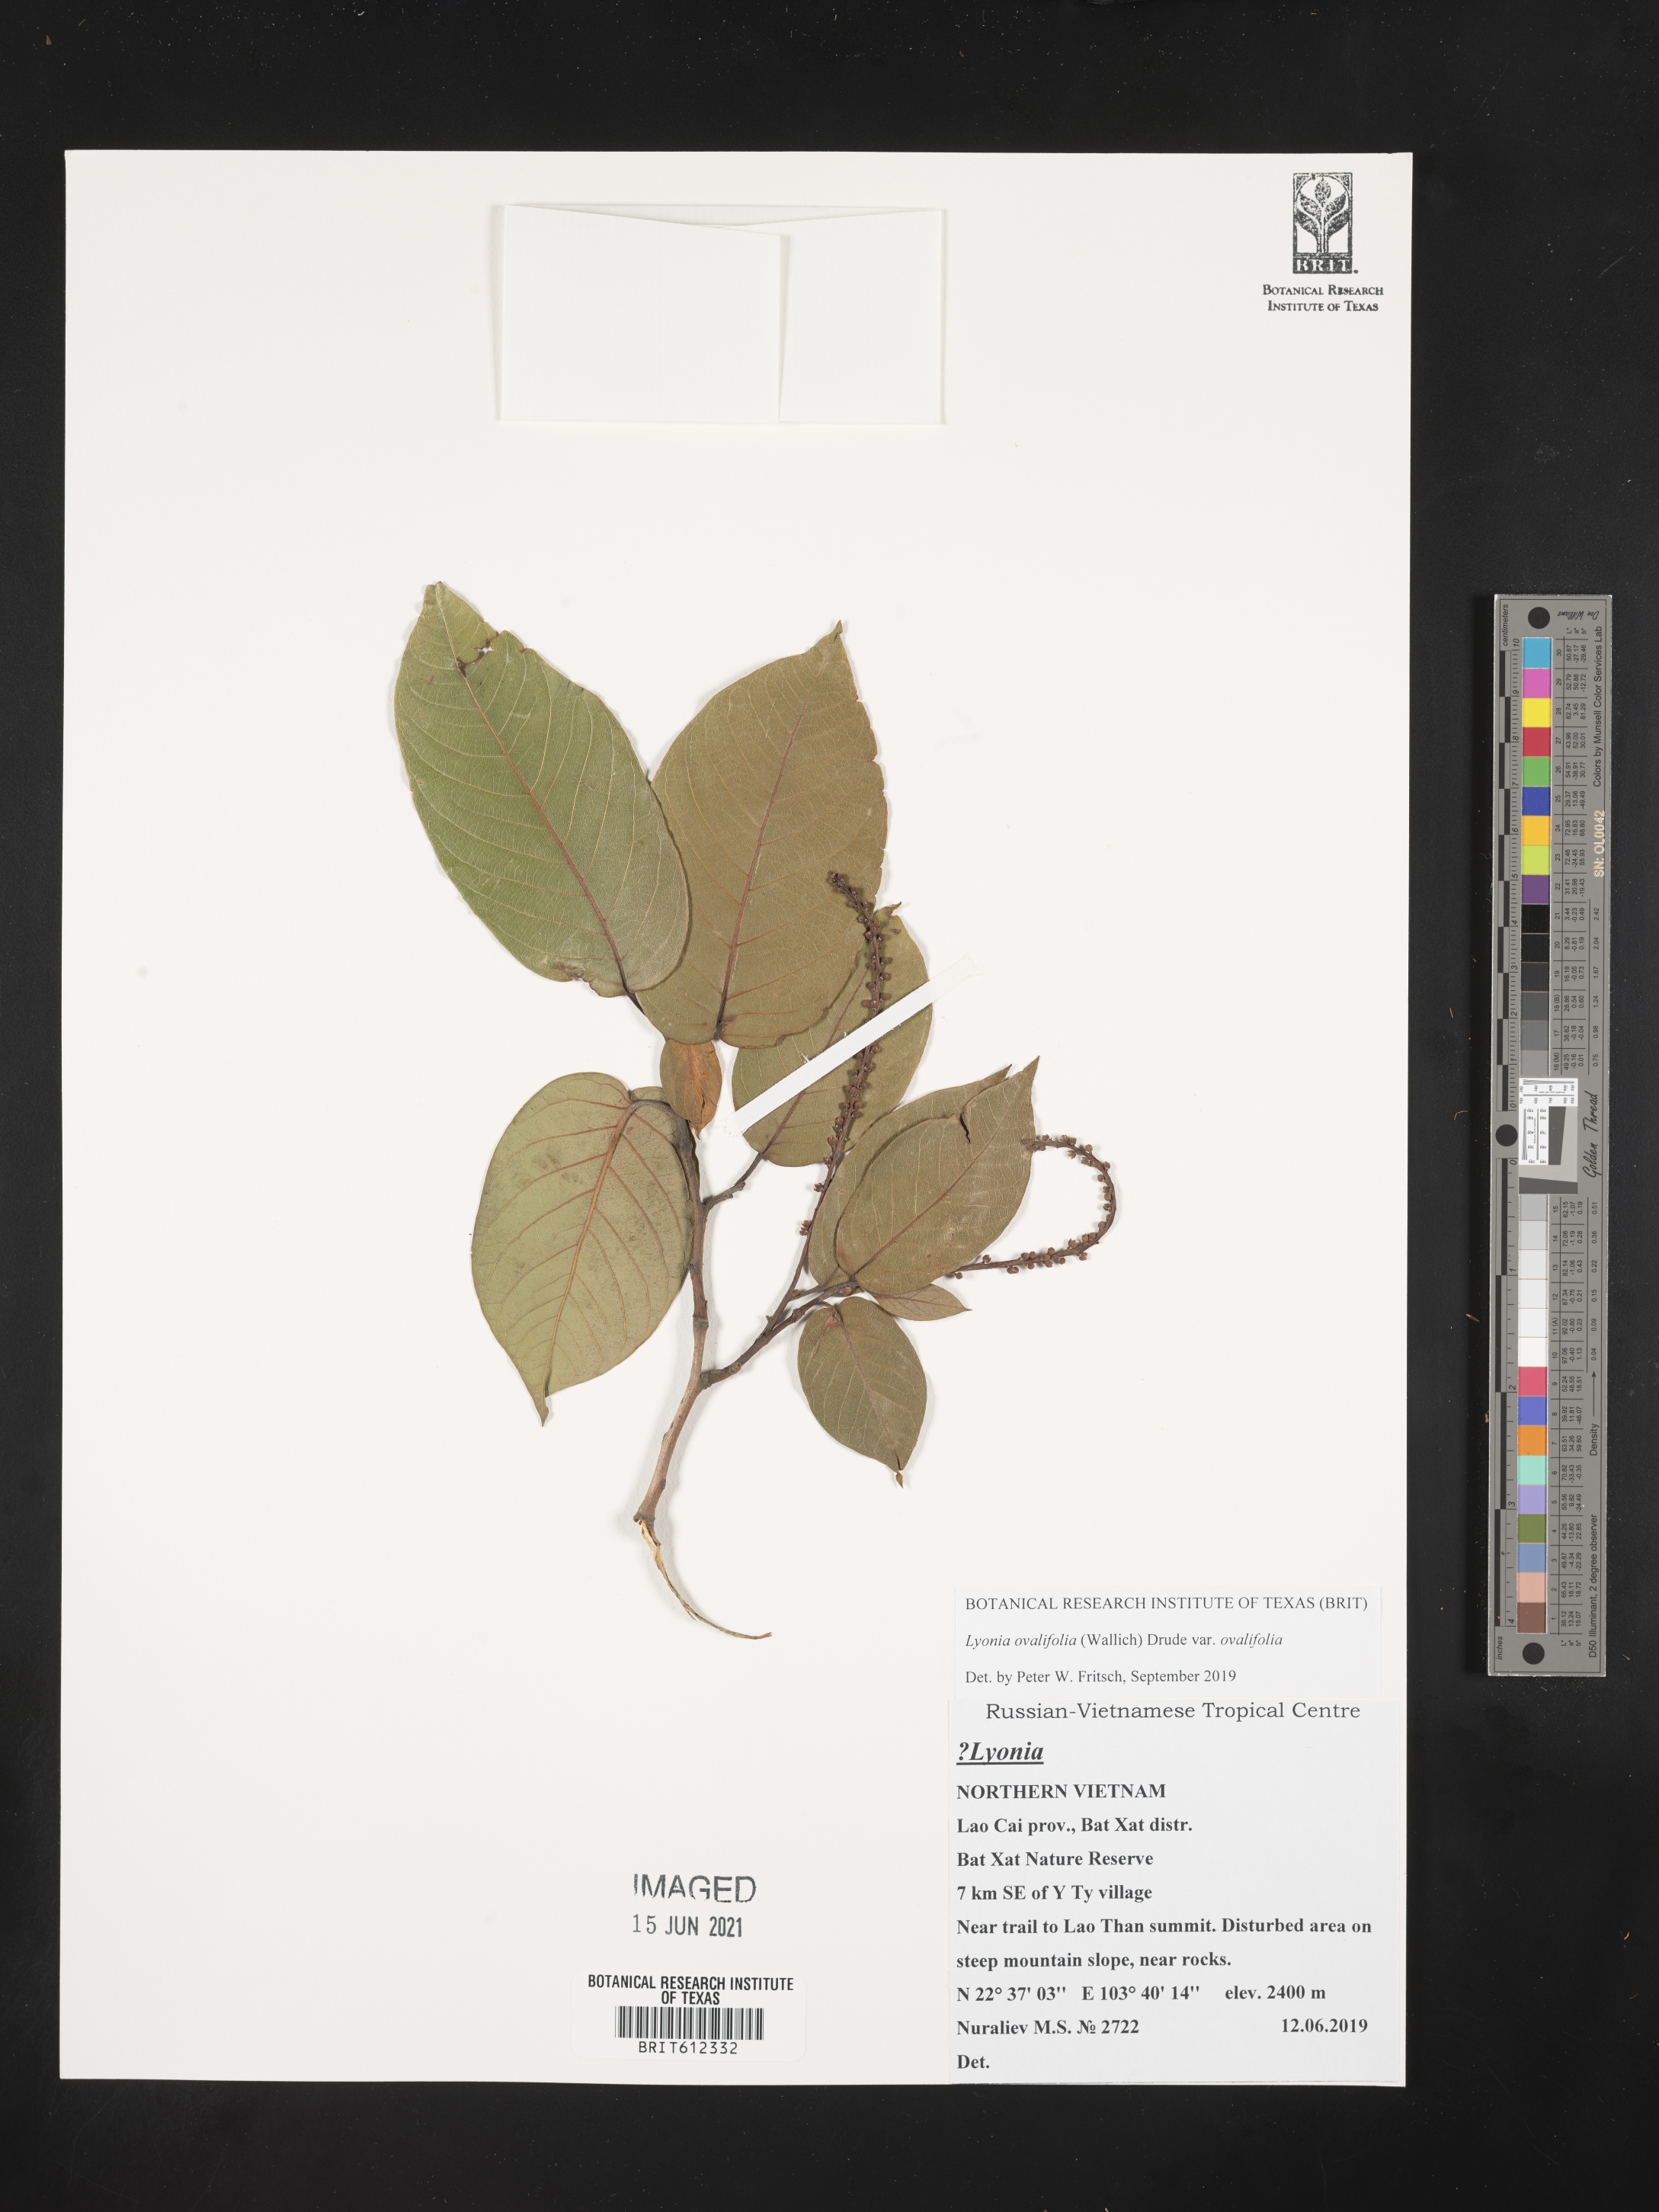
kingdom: Plantae
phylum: Tracheophyta
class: Magnoliopsida
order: Ericales
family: Ericaceae
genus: Lyonia
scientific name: Lyonia ovalifolia
